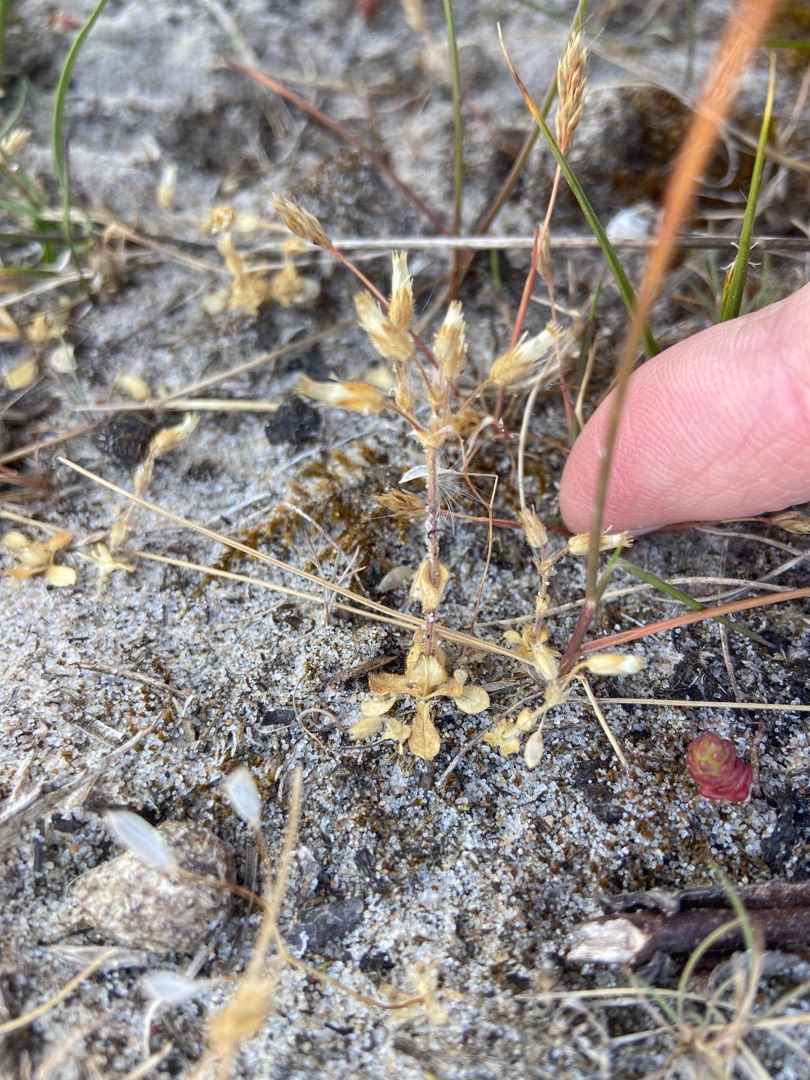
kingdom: Plantae
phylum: Tracheophyta
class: Magnoliopsida
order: Caryophyllales
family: Caryophyllaceae
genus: Cerastium
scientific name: Cerastium semidecandrum
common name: Femhannet hønsetarm
